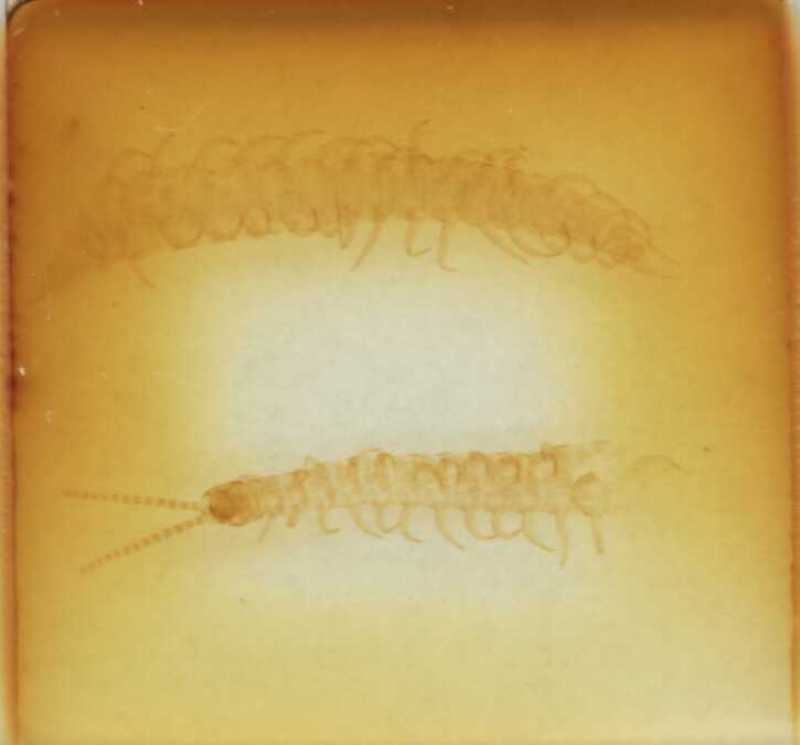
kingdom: Animalia
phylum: Arthropoda
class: Chilopoda
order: Geophilomorpha
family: Linotaeniidae
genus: Strigamia
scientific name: Strigamia transsilvanica
